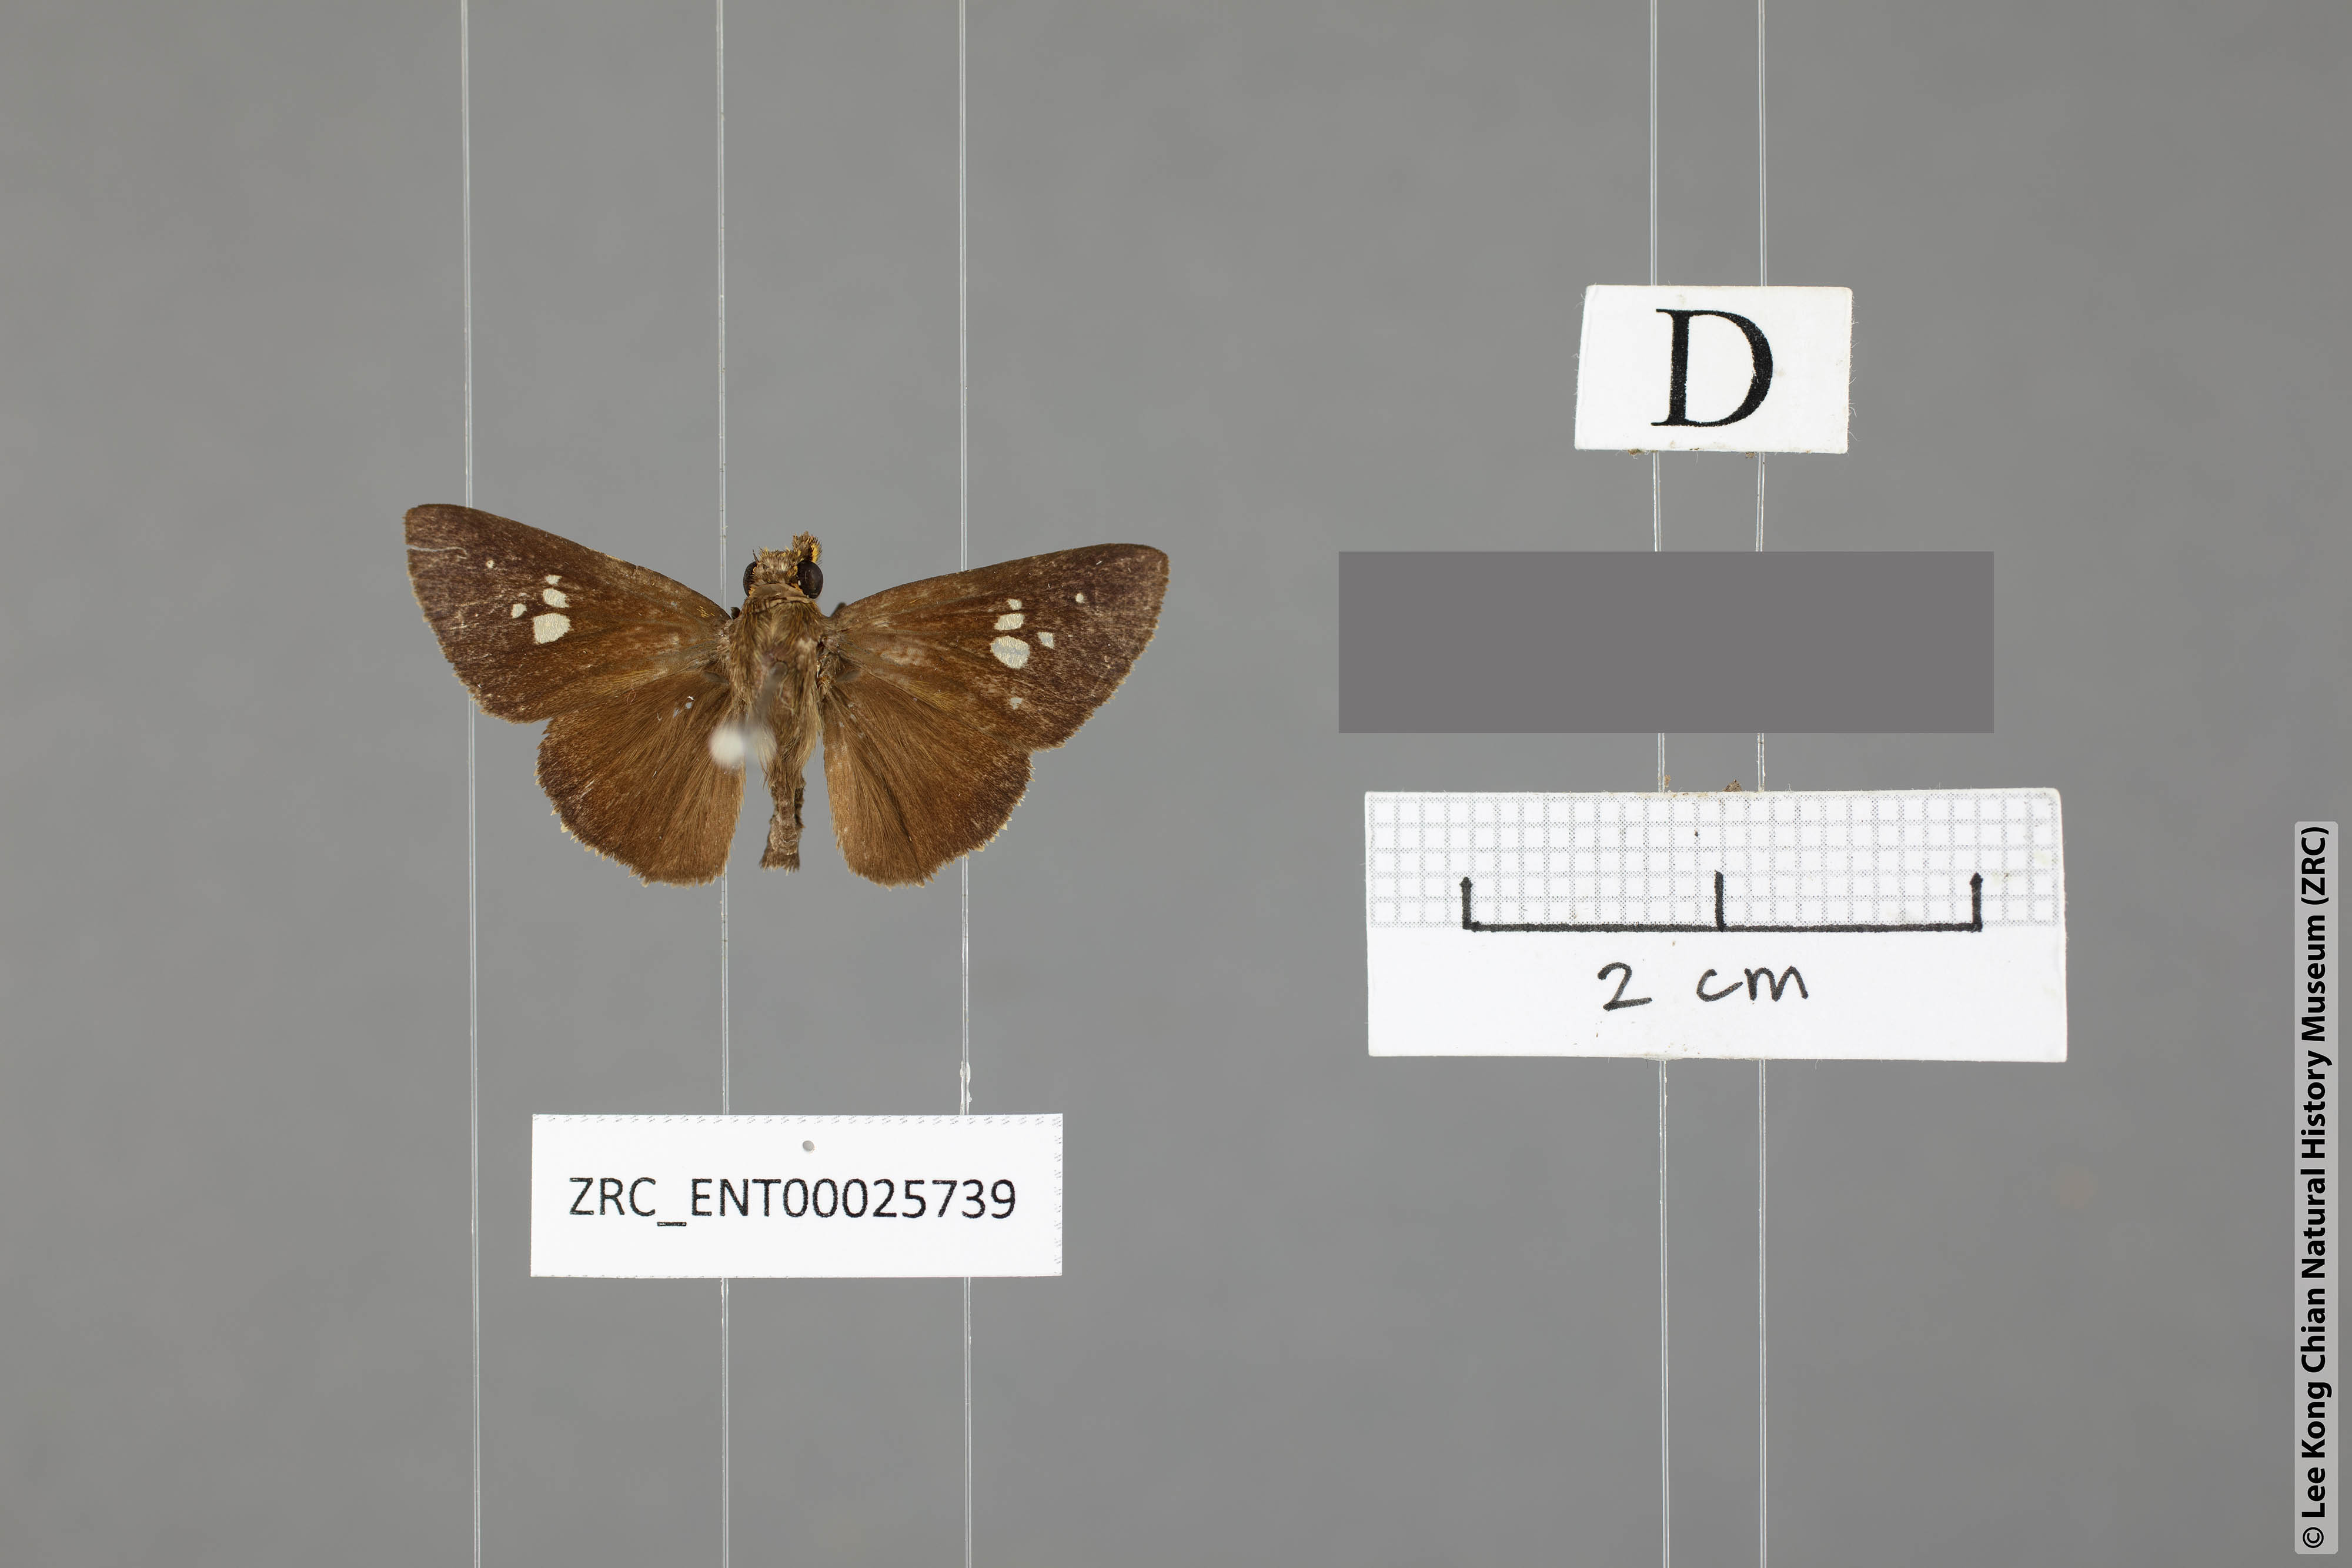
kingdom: Animalia
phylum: Arthropoda
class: Insecta
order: Lepidoptera
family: Hesperiidae
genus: Zographetus
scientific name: Zographetus ogygia
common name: Purple-spotted flitter
